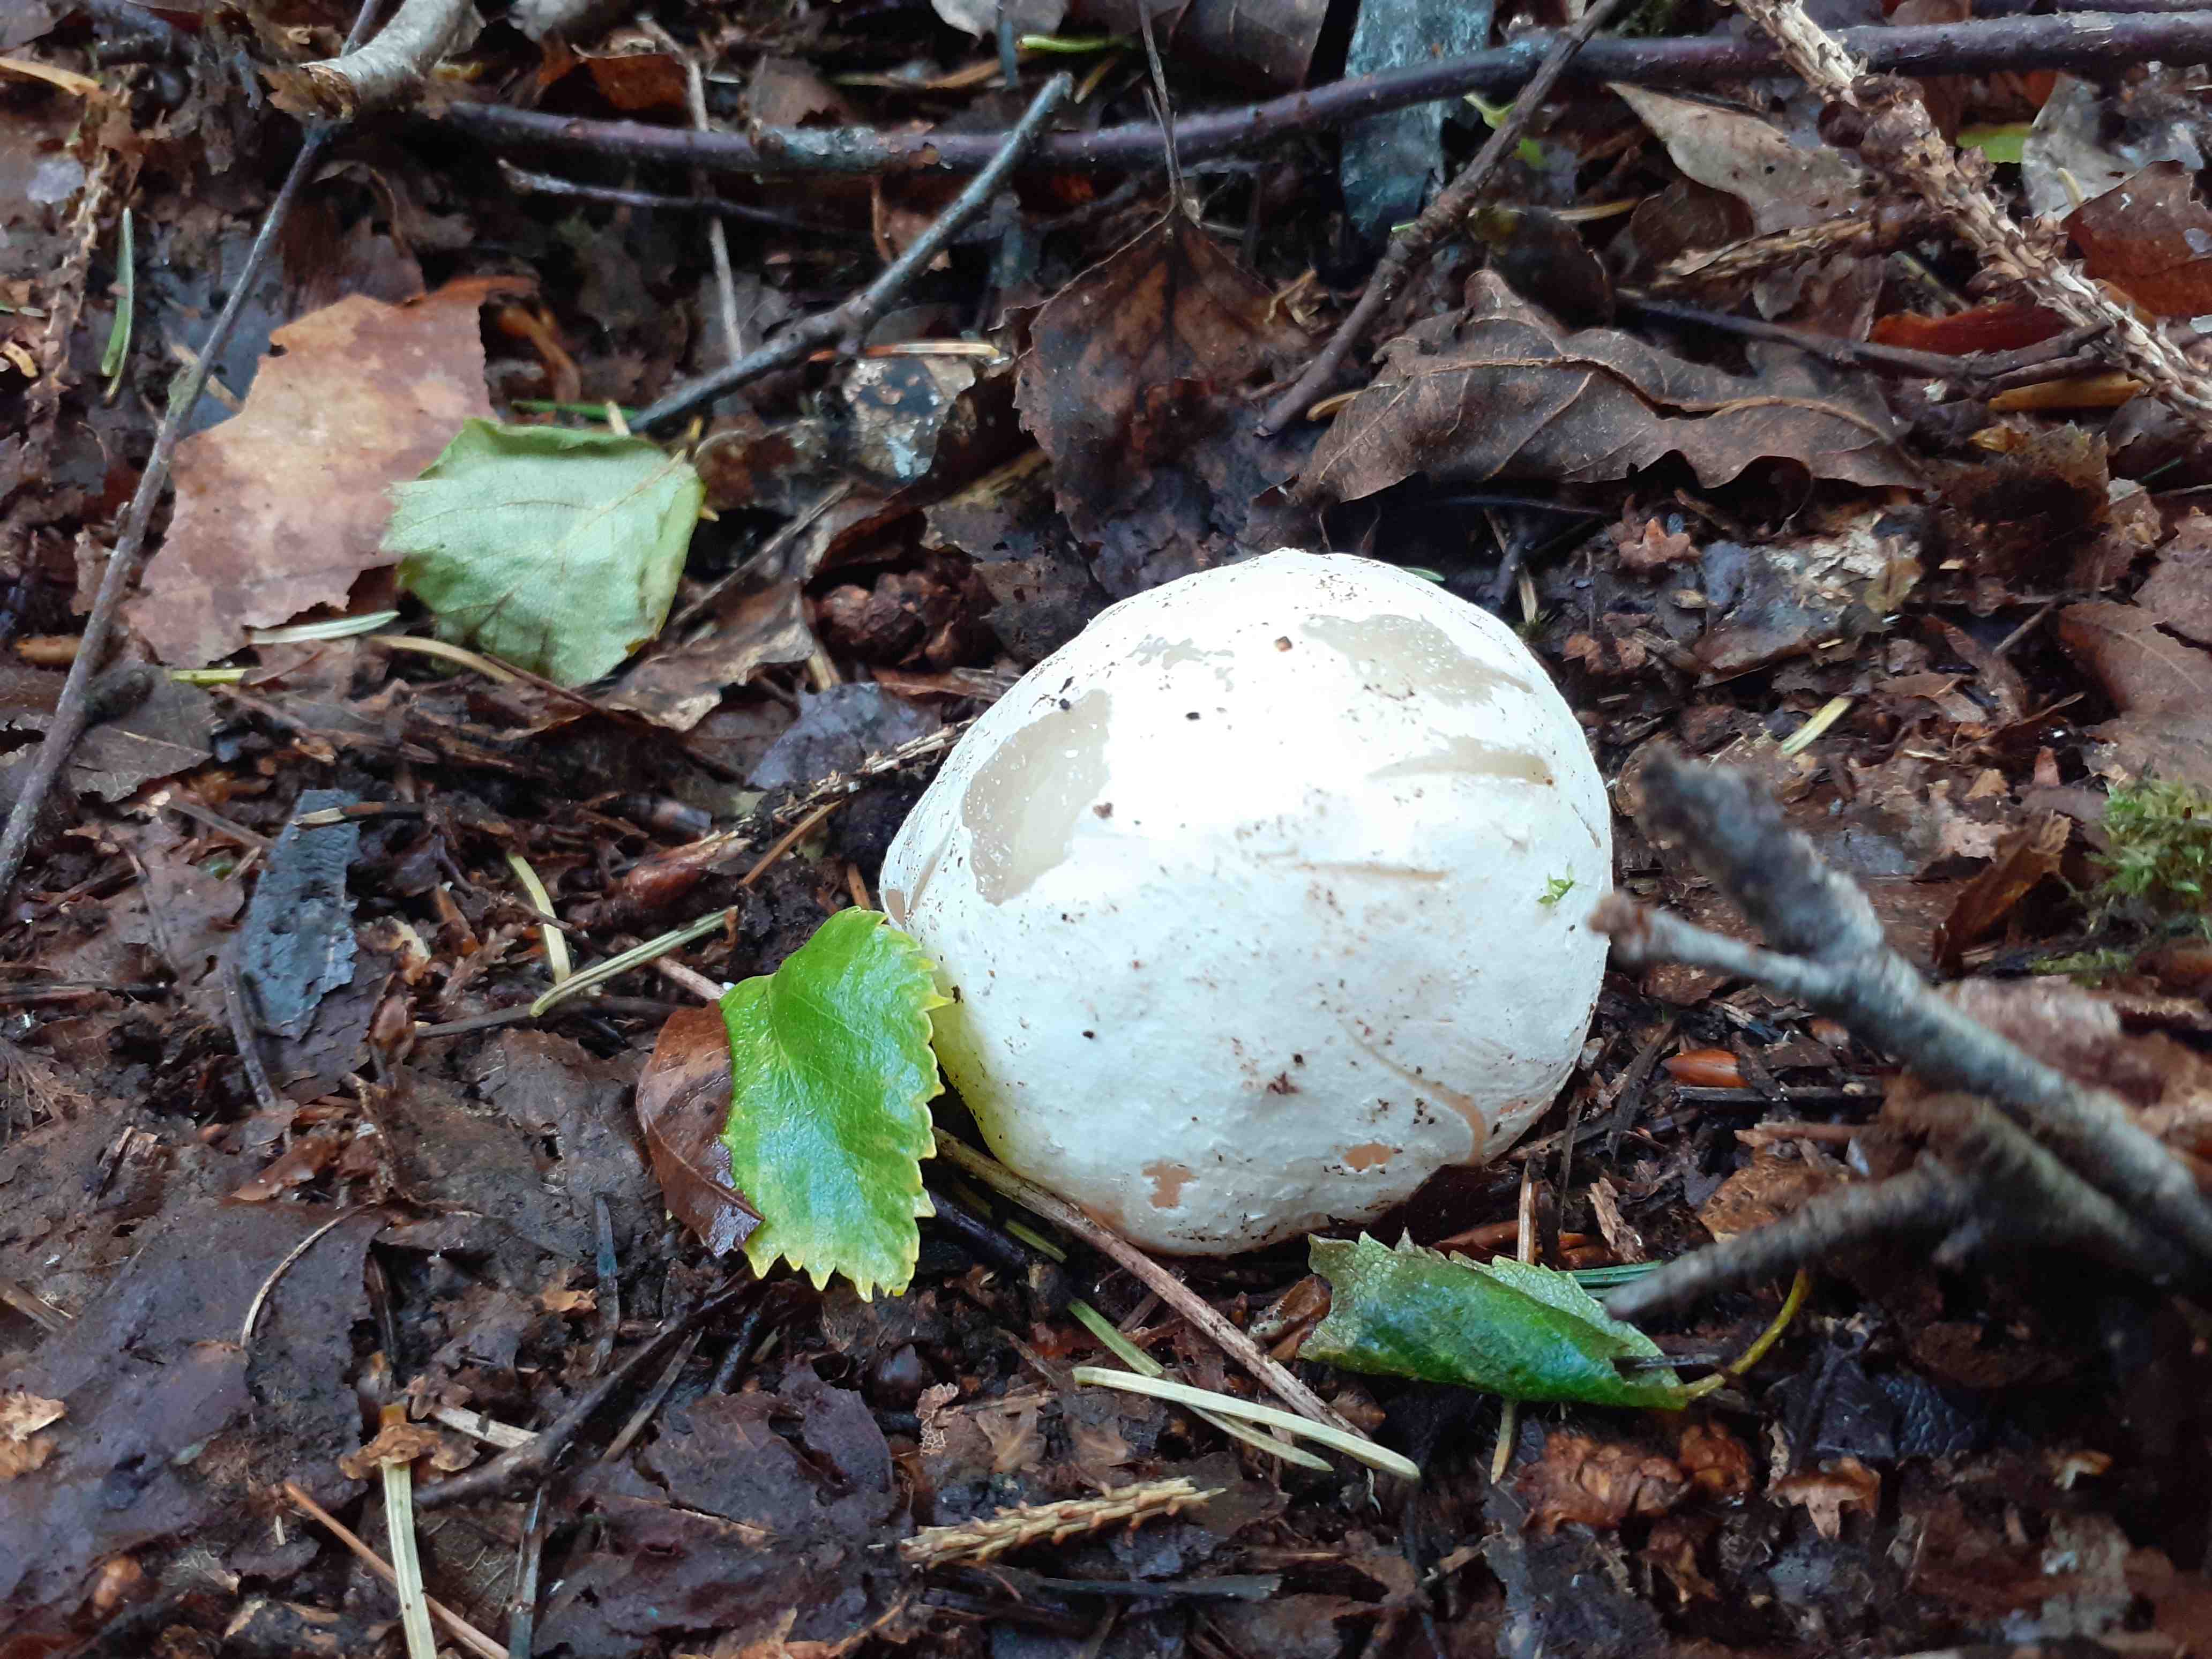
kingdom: Fungi
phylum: Basidiomycota
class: Agaricomycetes
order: Phallales
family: Phallaceae
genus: Phallus
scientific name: Phallus impudicus
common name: almindelig stinksvamp
